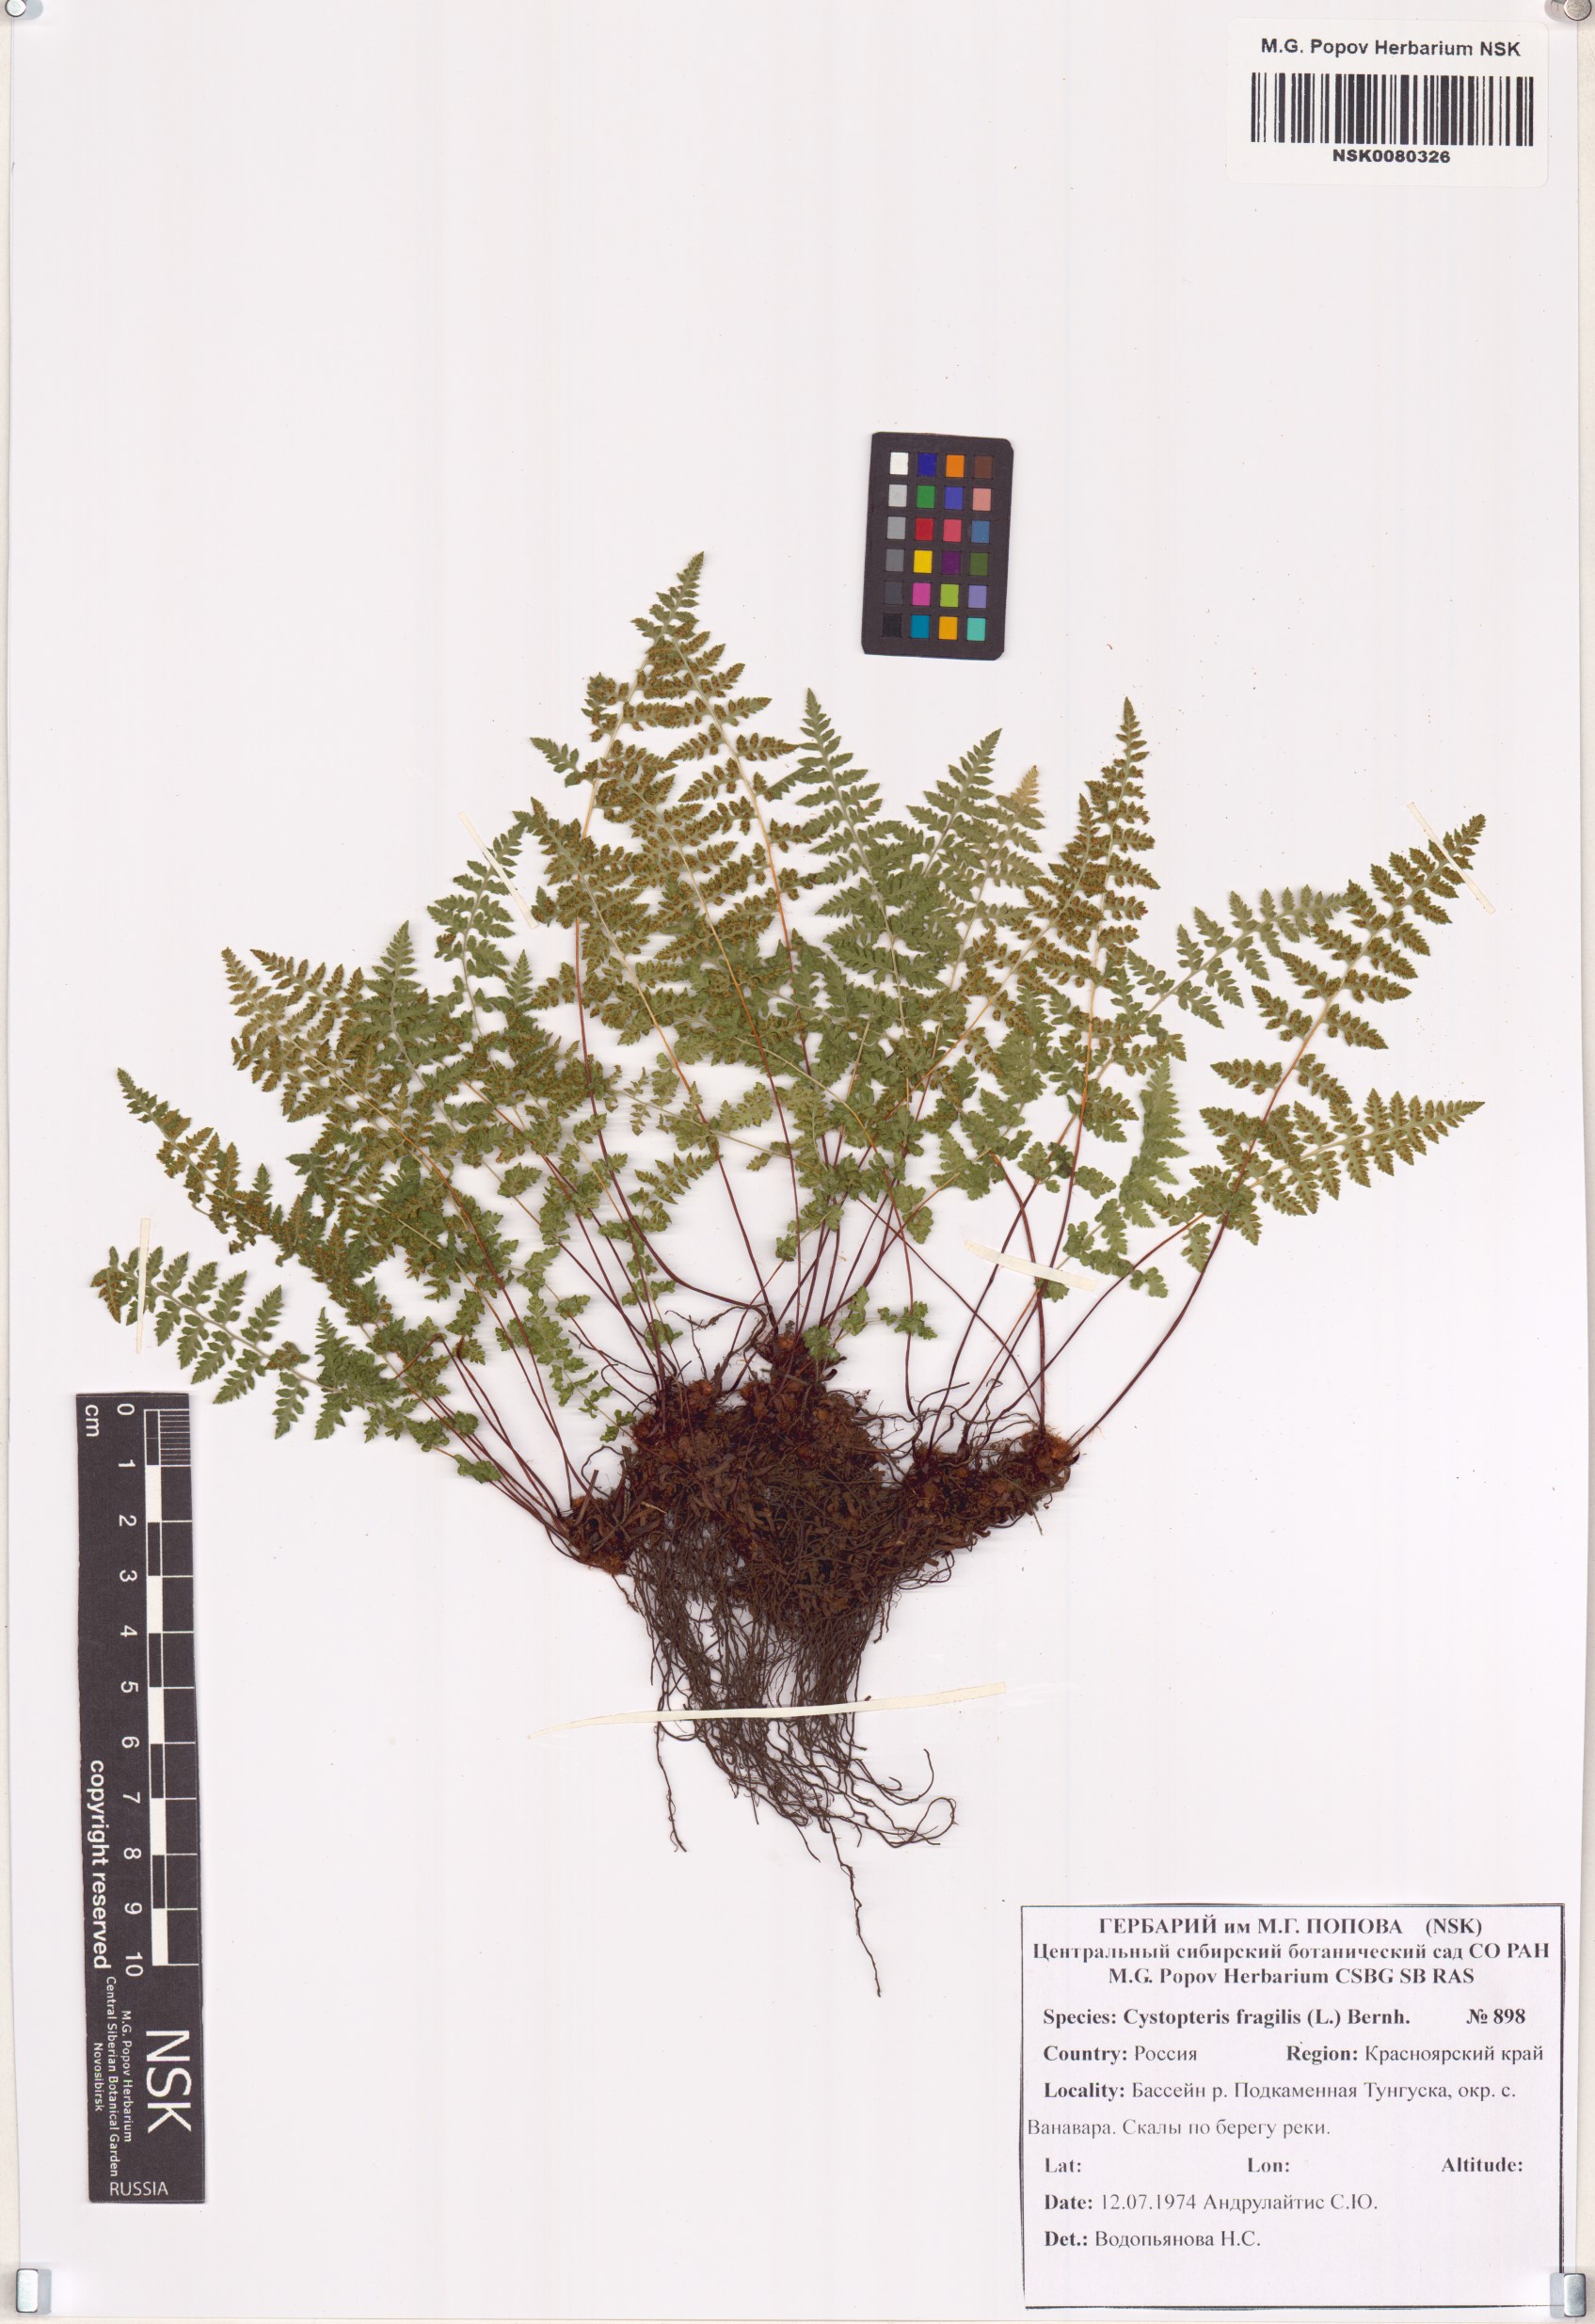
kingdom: Plantae
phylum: Tracheophyta
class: Polypodiopsida
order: Polypodiales
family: Cystopteridaceae
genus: Cystopteris
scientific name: Cystopteris fragilis
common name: Brittle bladder fern
